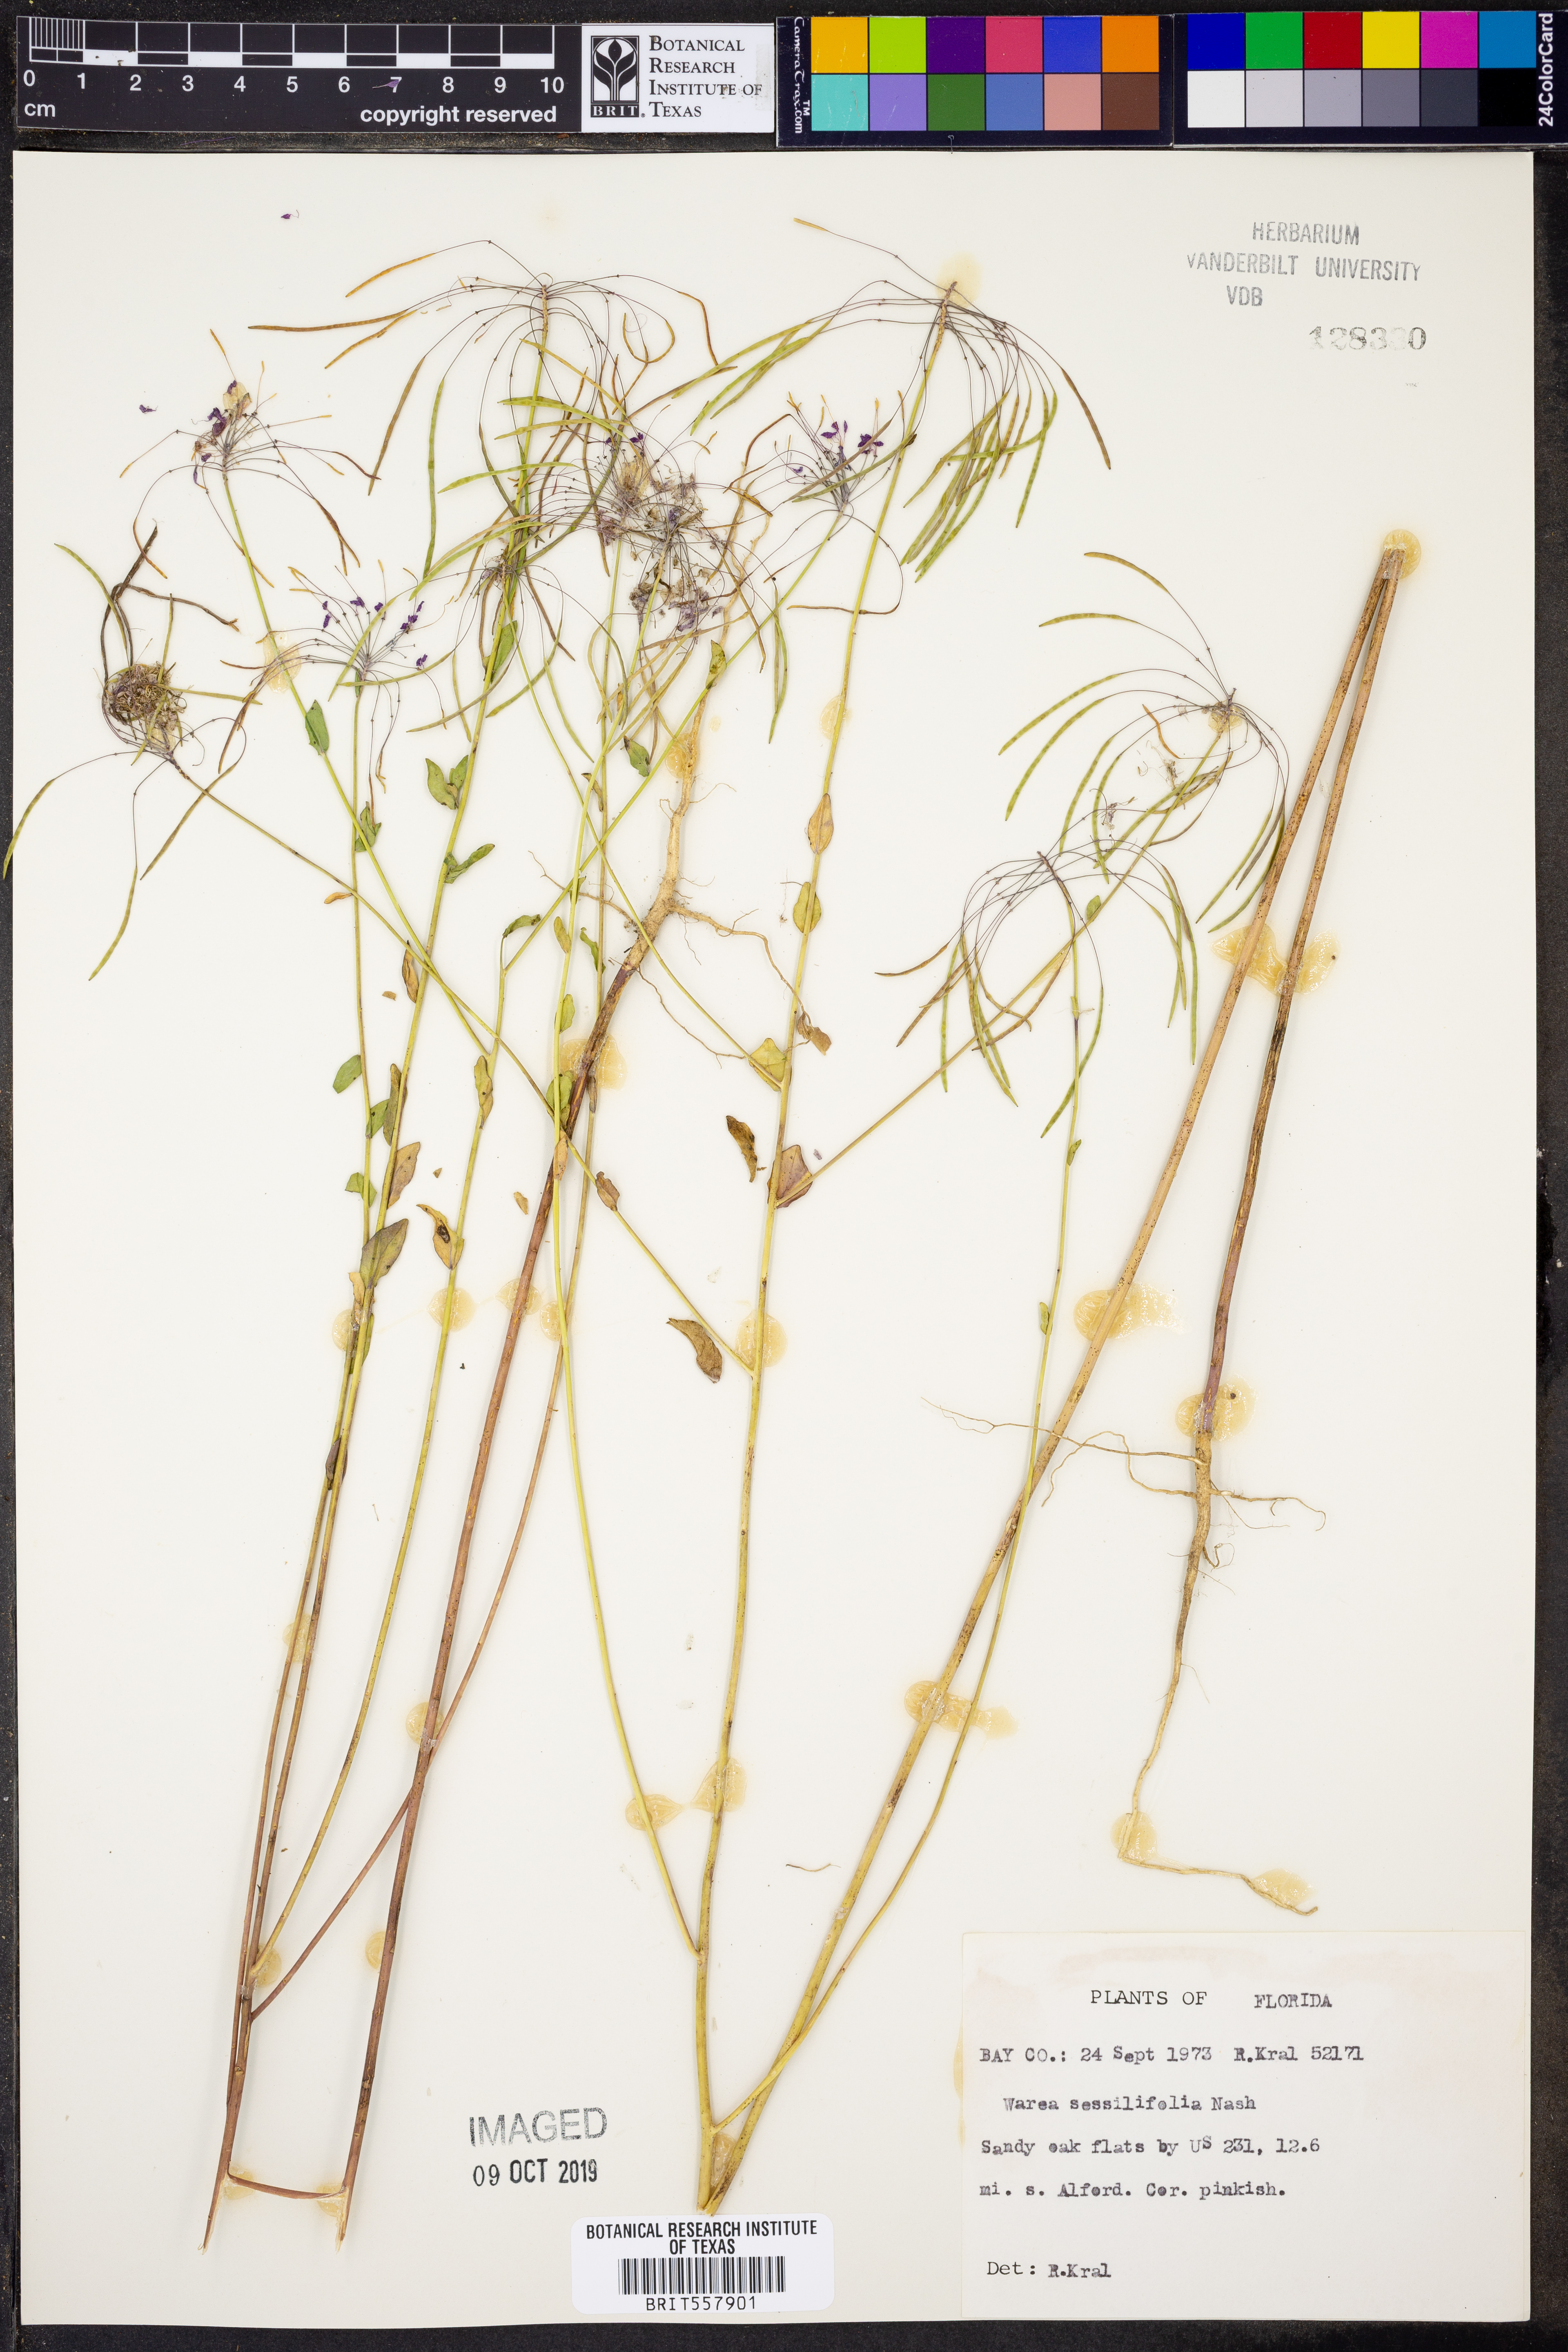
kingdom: Plantae
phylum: Tracheophyta
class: Magnoliopsida
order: Brassicales
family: Brassicaceae
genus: Warea
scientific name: Warea sessilifolia
